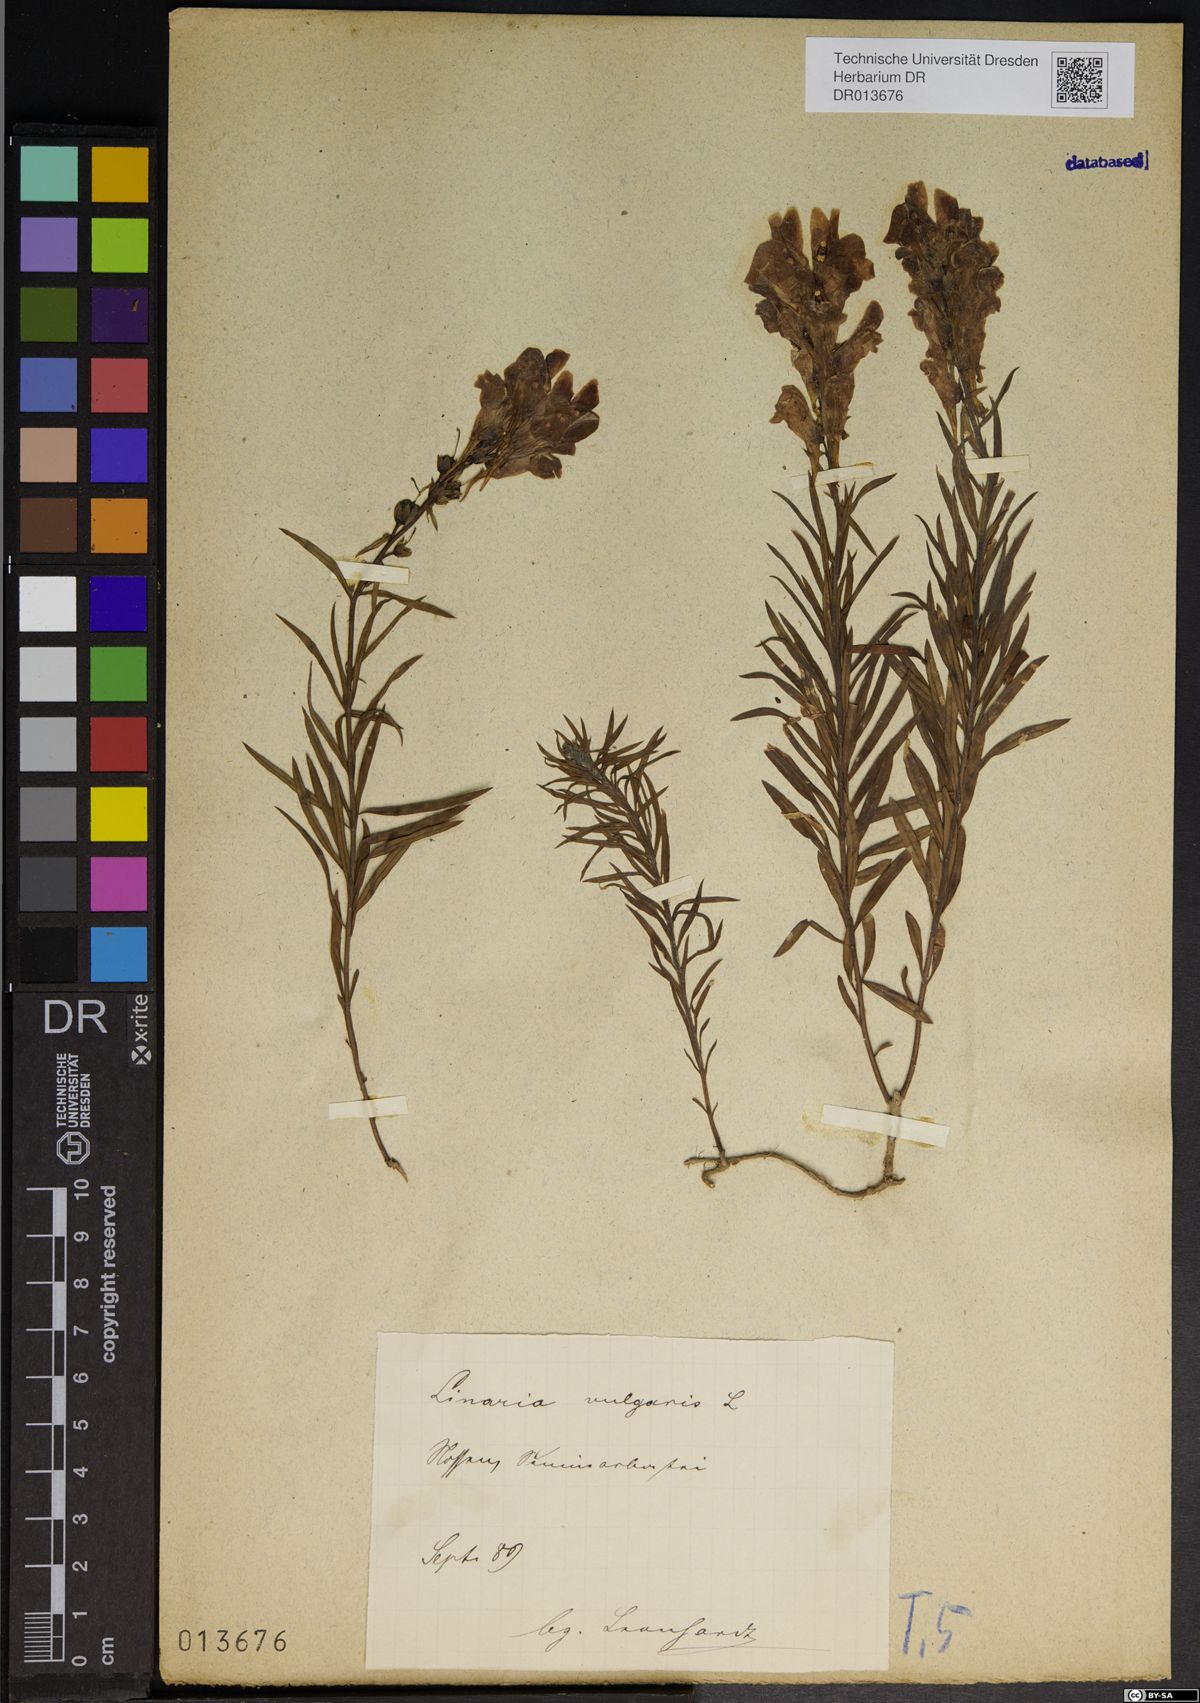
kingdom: Plantae
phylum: Tracheophyta
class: Magnoliopsida
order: Lamiales
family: Plantaginaceae
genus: Linaria
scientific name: Linaria vulgaris
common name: Butter and eggs
